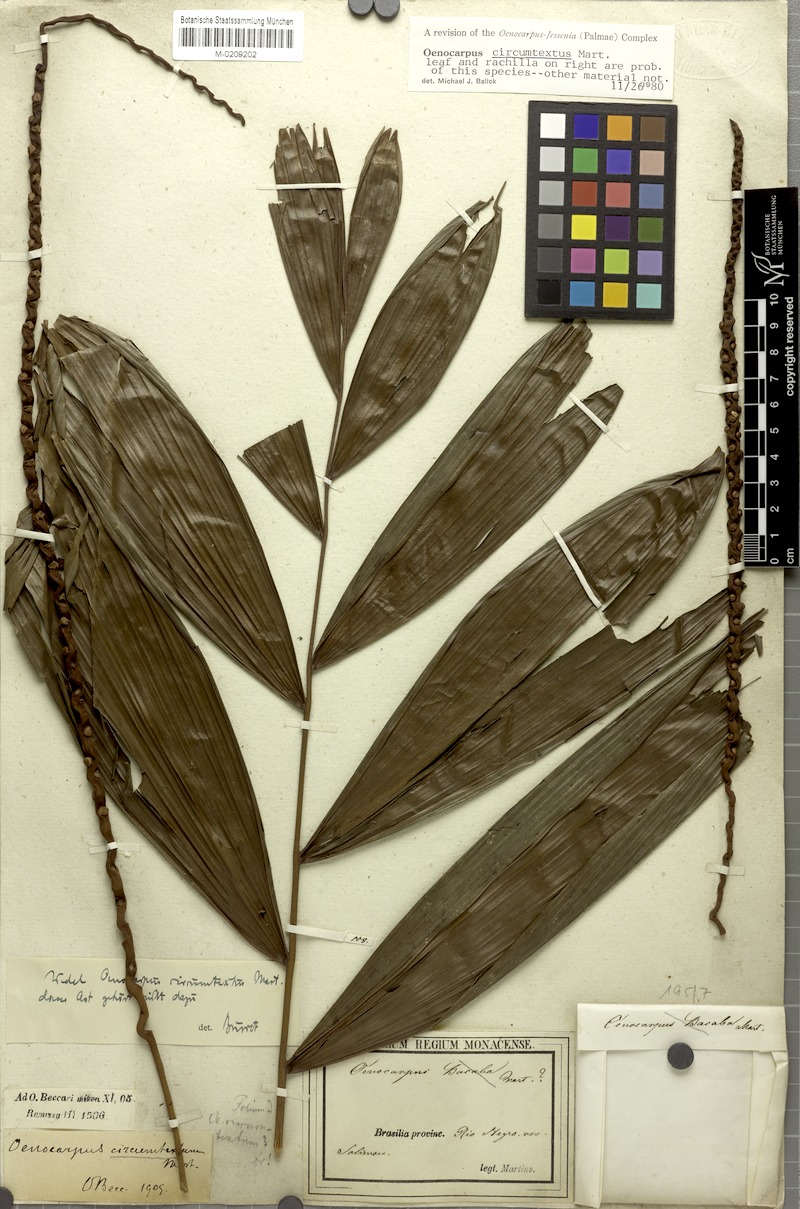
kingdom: Plantae
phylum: Tracheophyta
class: Liliopsida
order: Arecales
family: Arecaceae
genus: Oenocarpus
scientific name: Oenocarpus circumtextus
